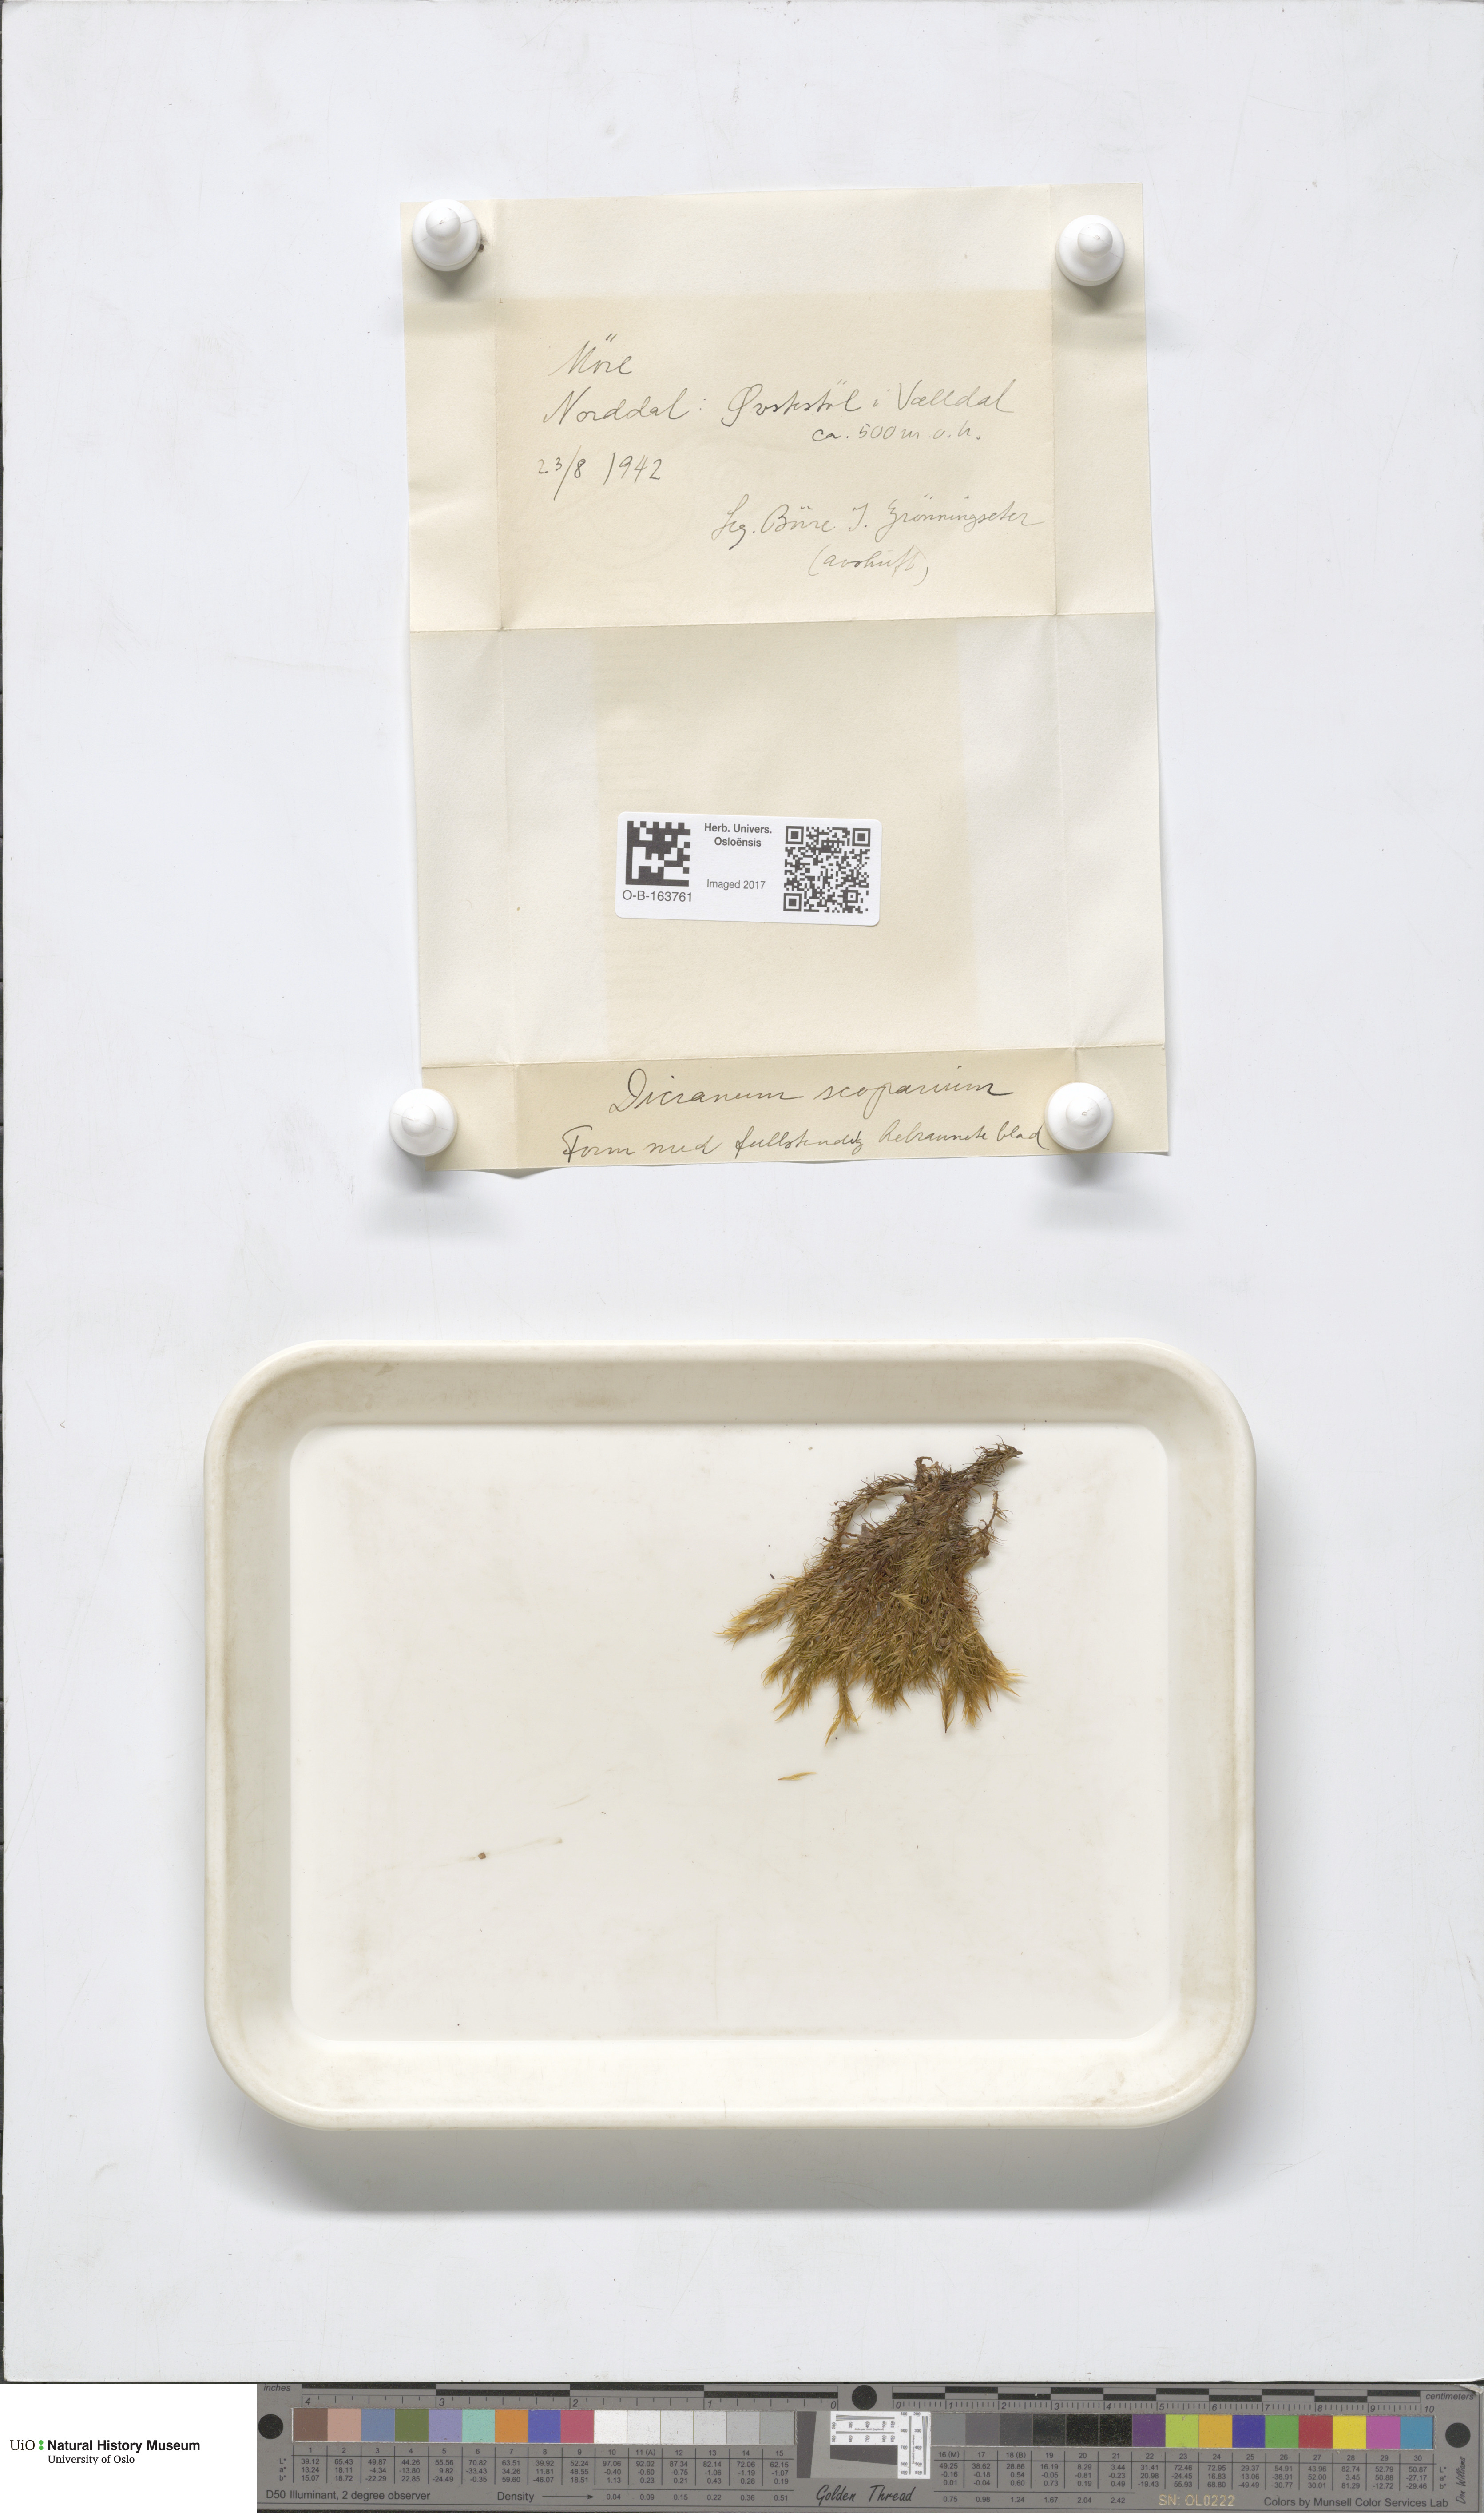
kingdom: Plantae
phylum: Bryophyta
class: Bryopsida
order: Dicranales
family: Dicranaceae
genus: Dicranum
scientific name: Dicranum scoparium
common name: Broom fork-moss
